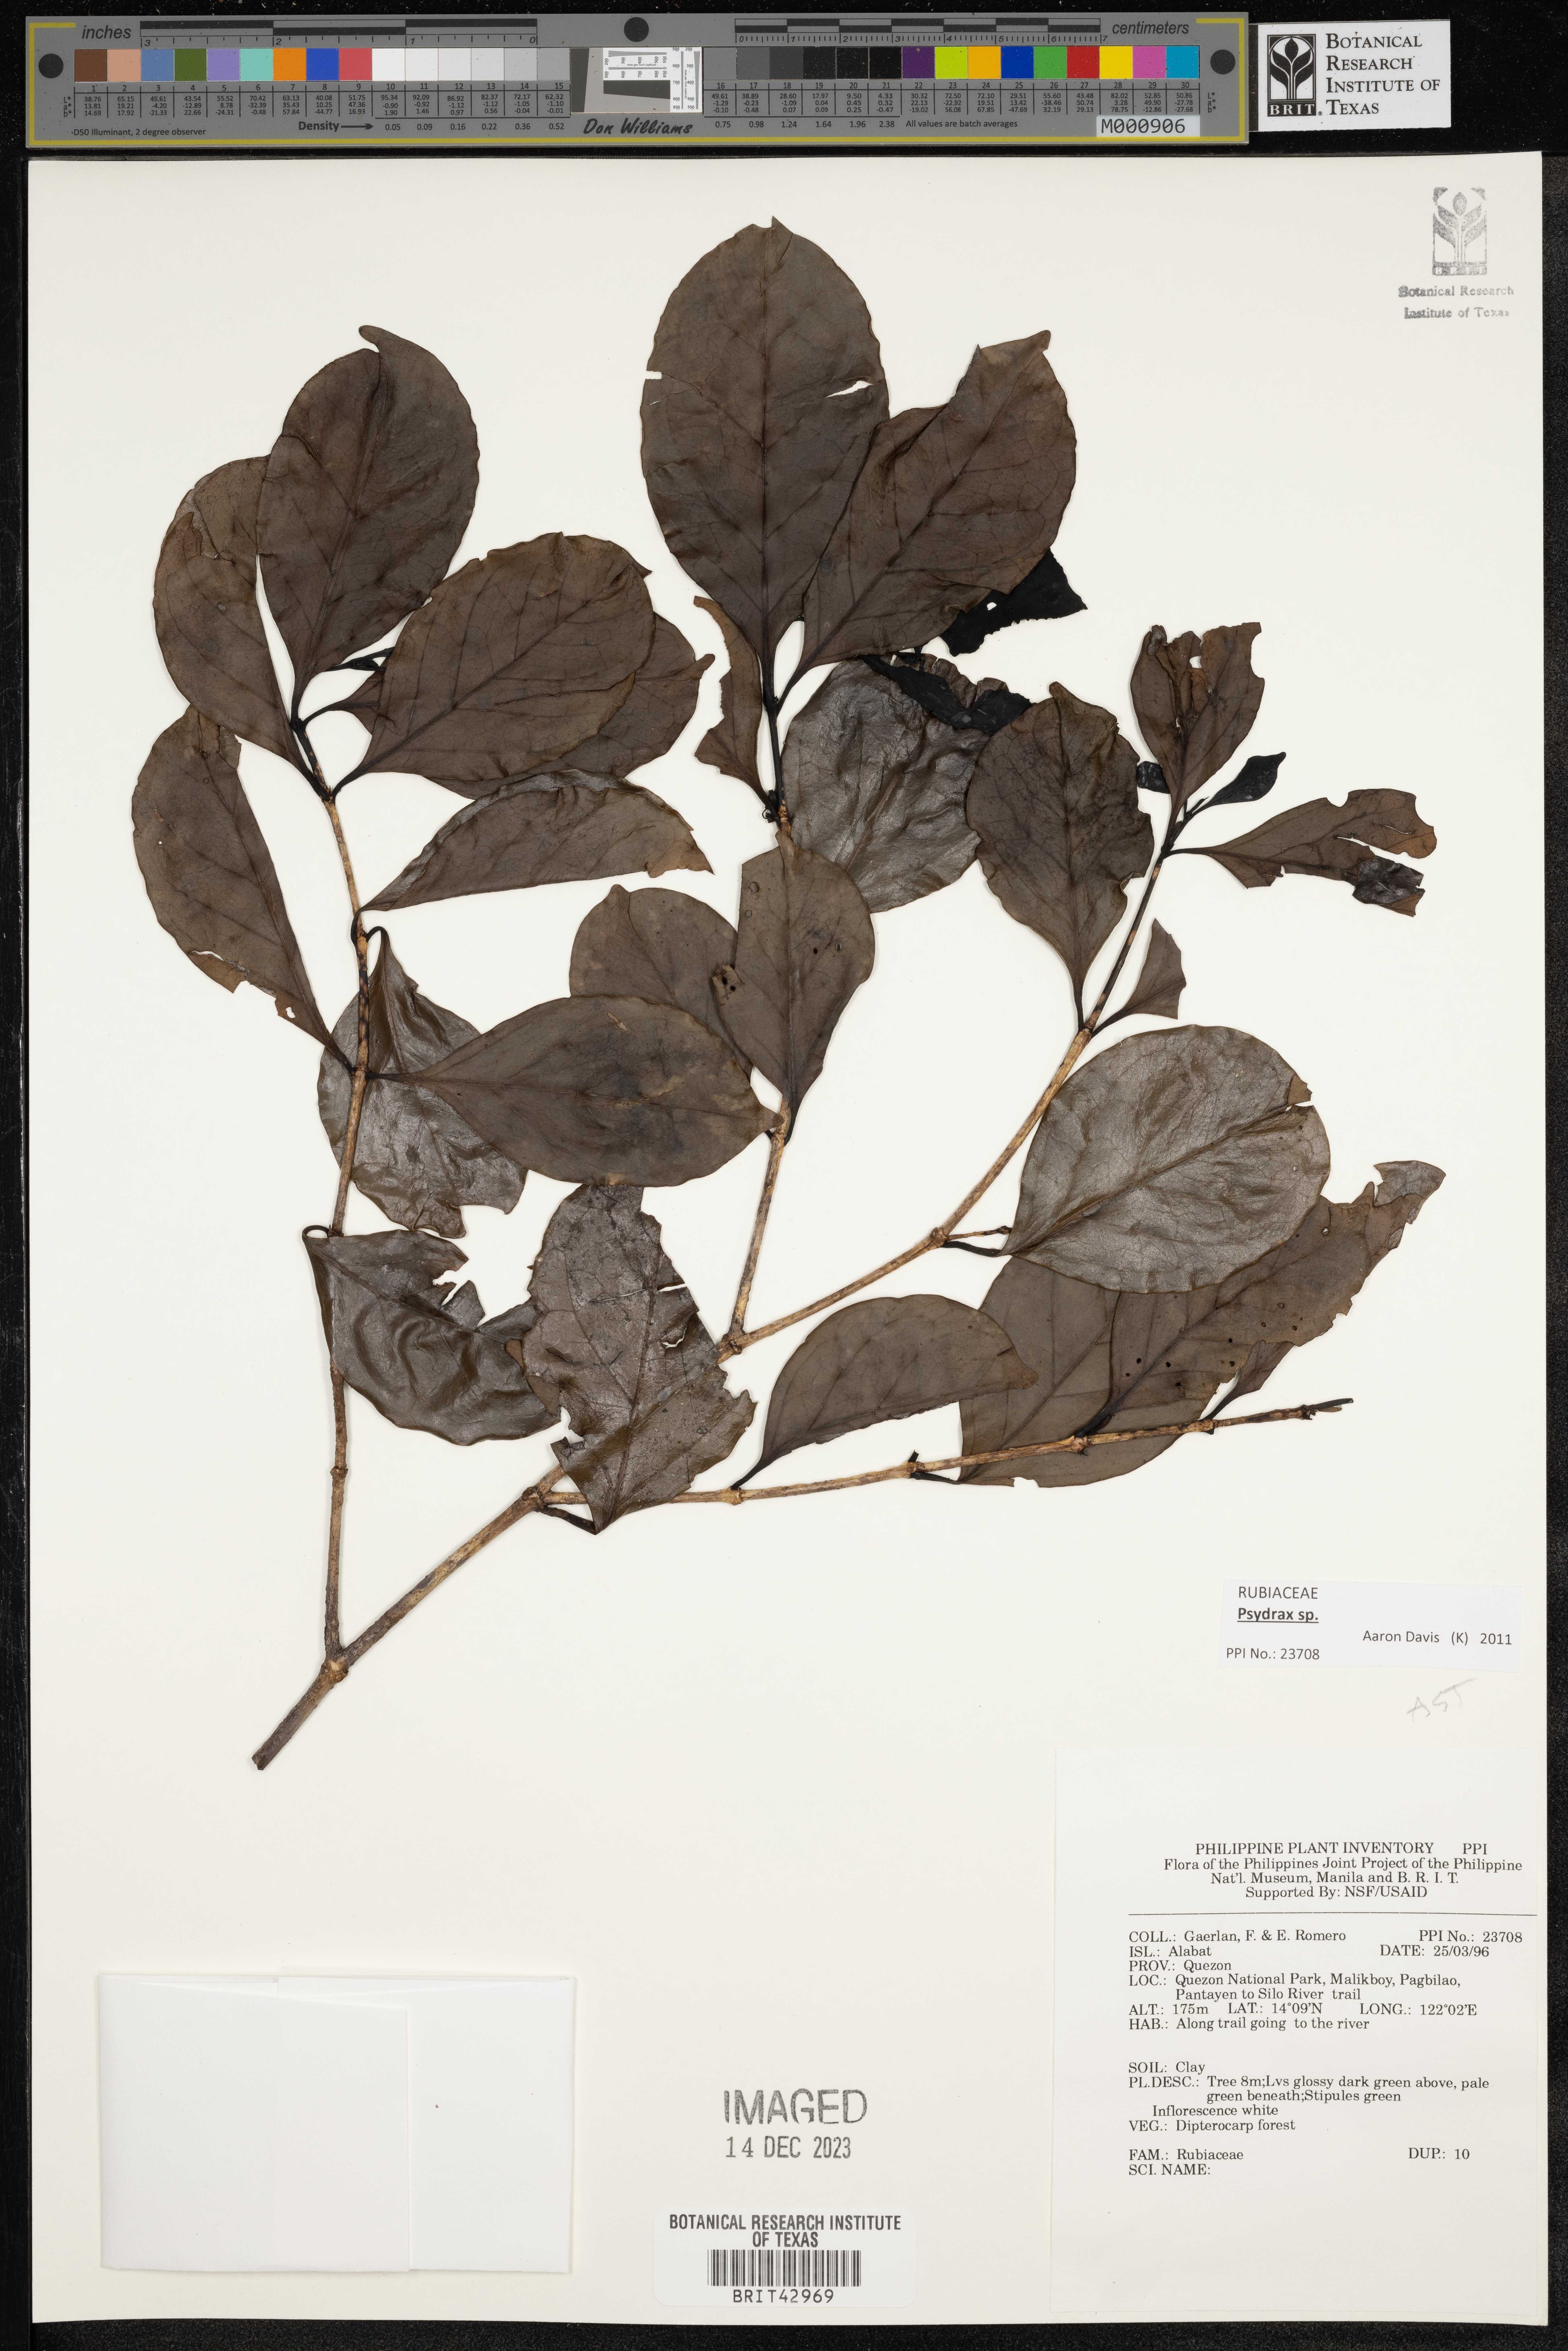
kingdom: Plantae
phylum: Tracheophyta
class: Magnoliopsida
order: Gentianales
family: Rubiaceae
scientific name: Rubiaceae
